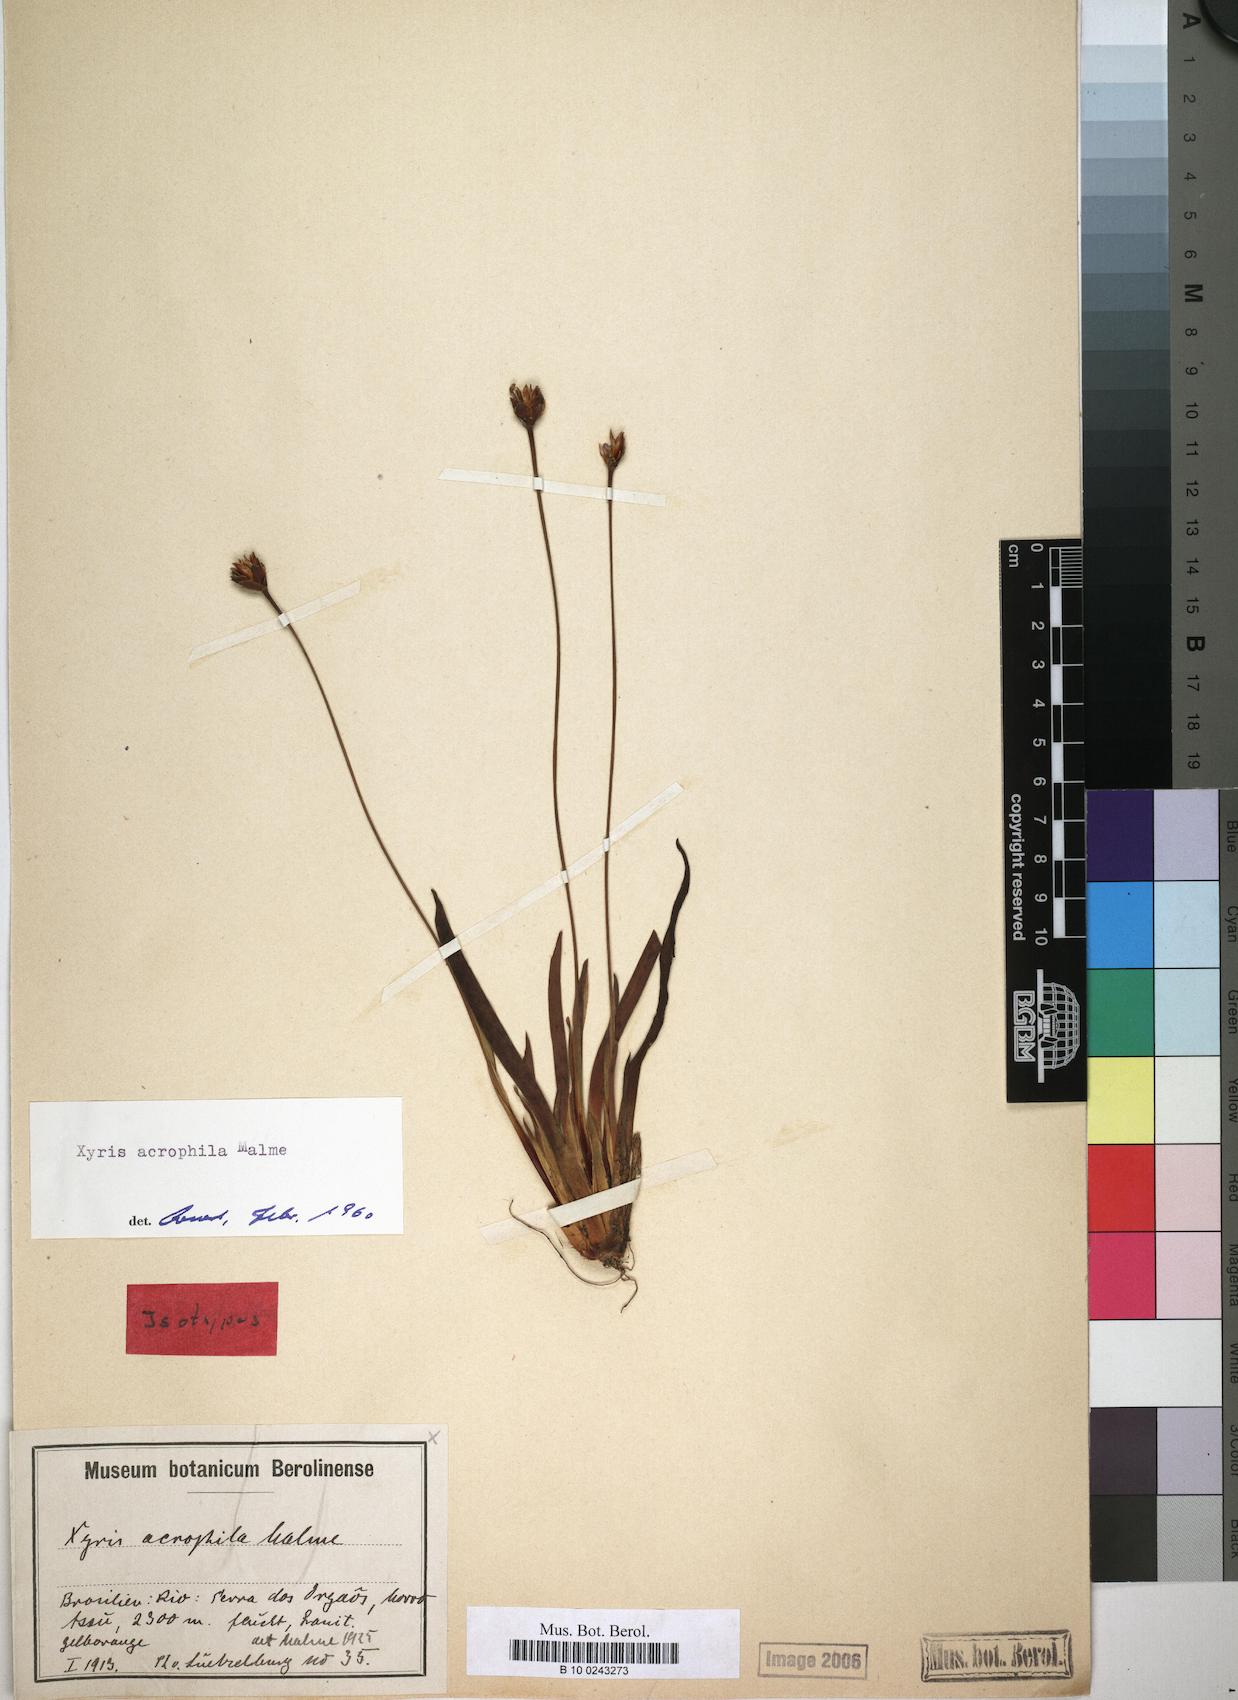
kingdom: Plantae
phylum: Tracheophyta
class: Liliopsida
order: Poales
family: Xyridaceae
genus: Xyris
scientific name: Xyris acrophila
